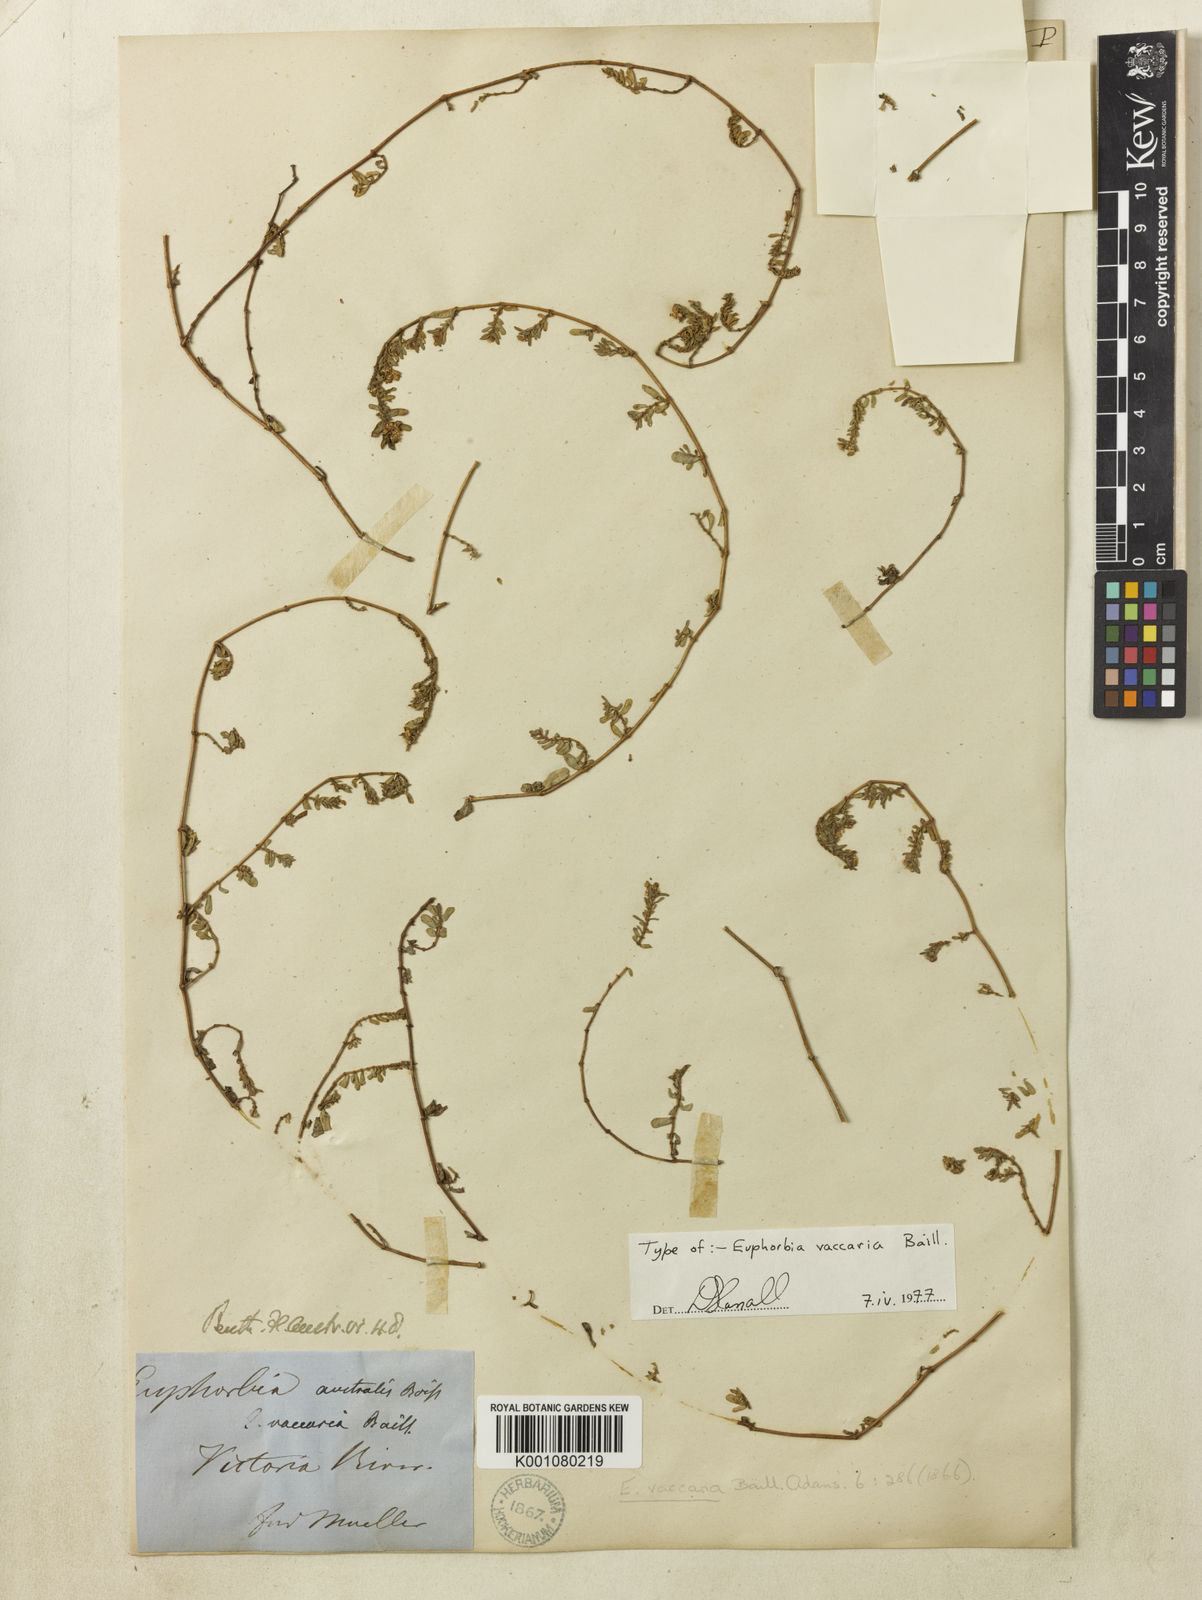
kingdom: Plantae
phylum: Tracheophyta
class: Magnoliopsida
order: Malpighiales
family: Euphorbiaceae
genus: Euphorbia
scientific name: Euphorbia vaccaria
